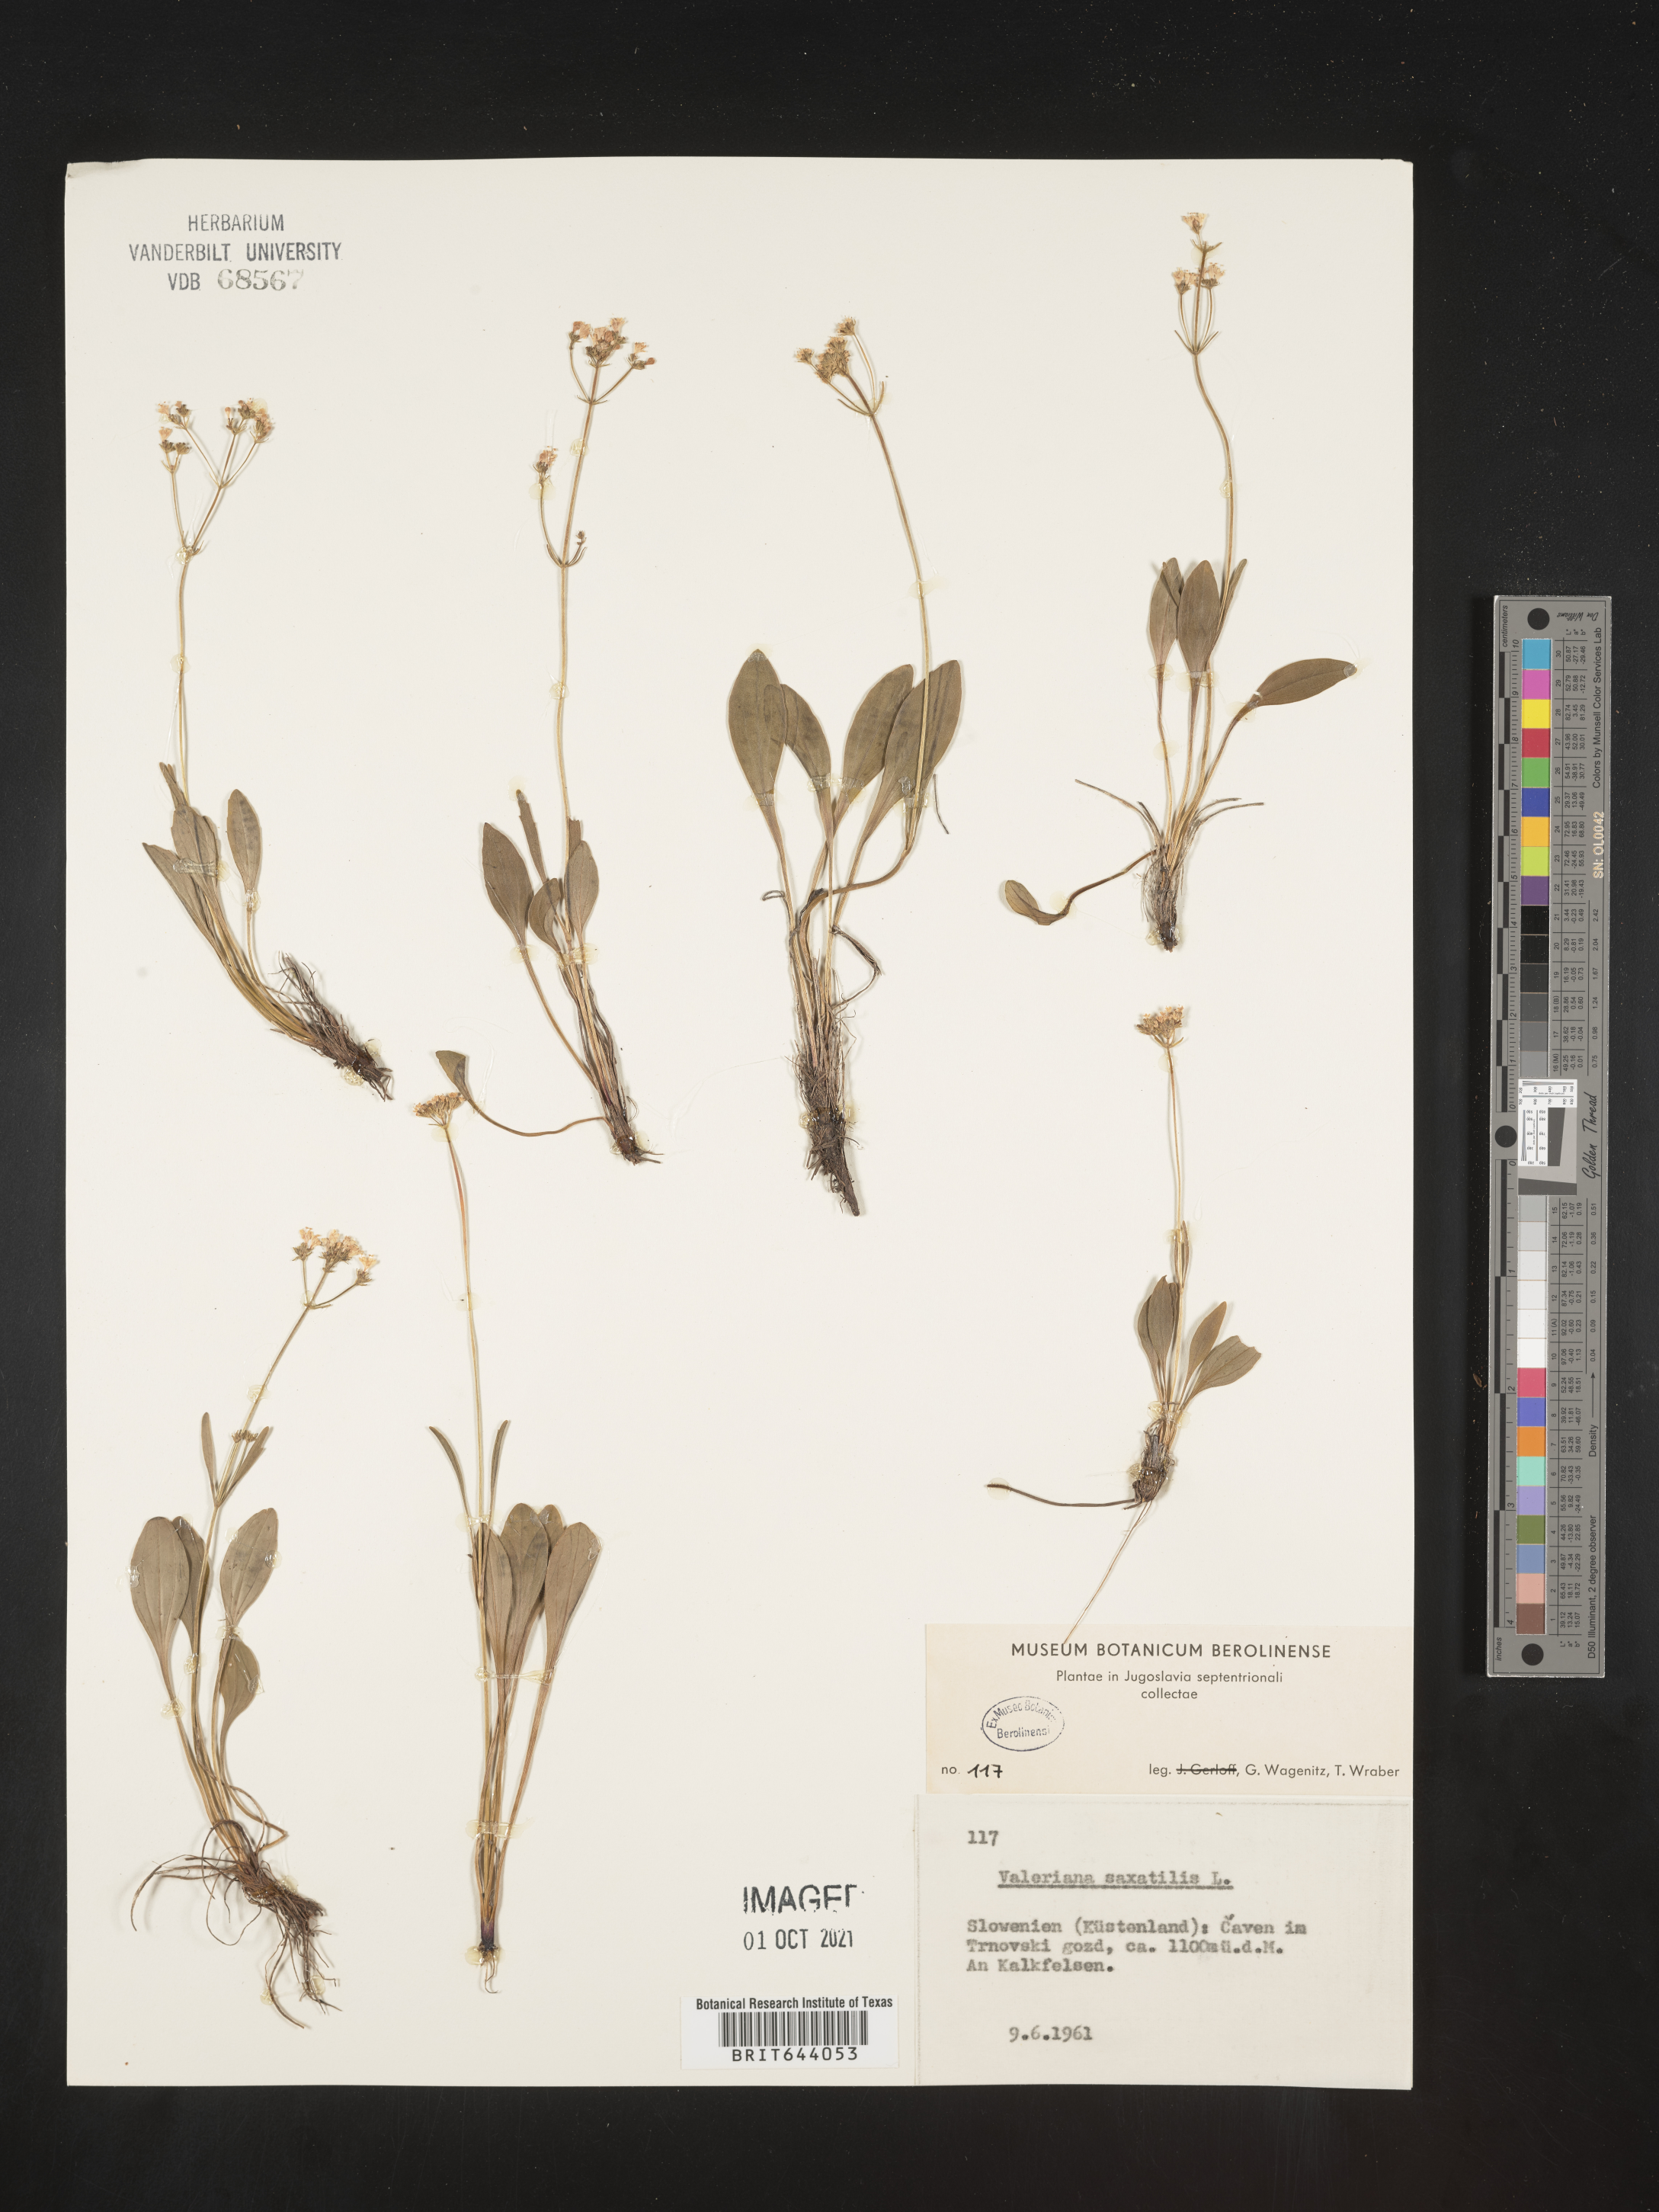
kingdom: Plantae
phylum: Tracheophyta
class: Magnoliopsida
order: Dipsacales
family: Caprifoliaceae
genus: Valeriana
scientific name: Valeriana saxatilis
